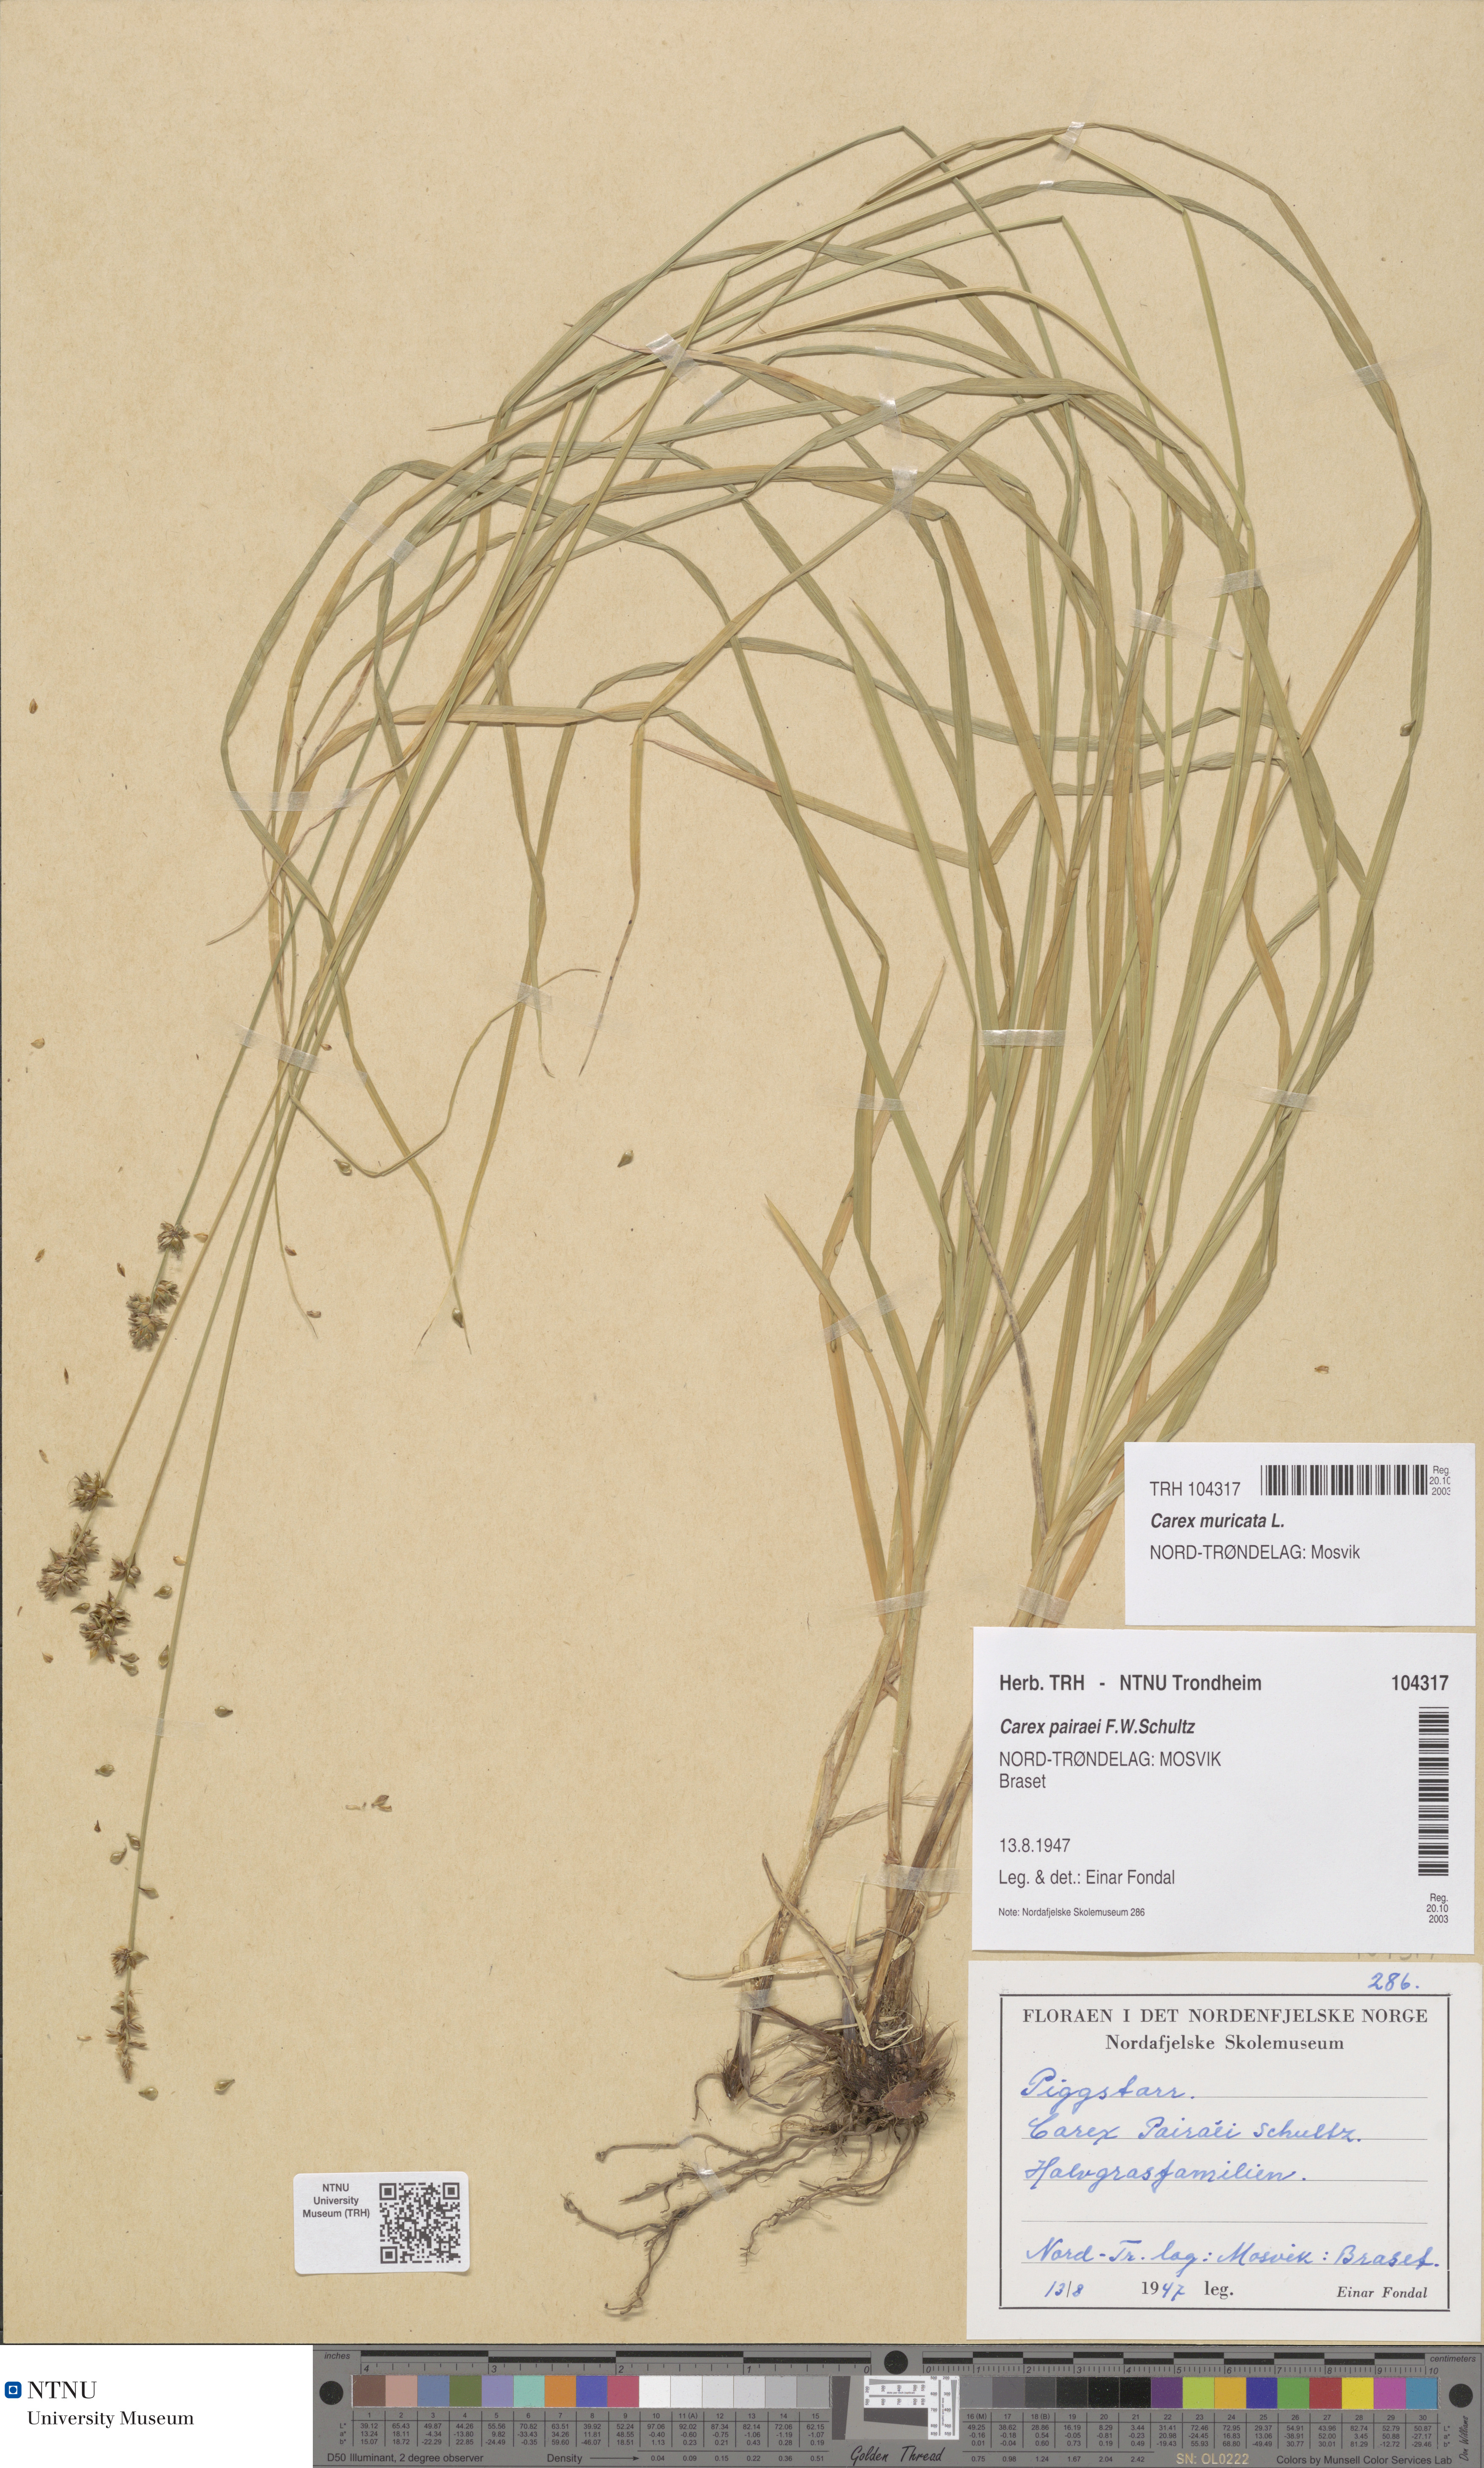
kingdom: Plantae
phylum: Tracheophyta
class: Liliopsida
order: Poales
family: Cyperaceae
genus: Carex
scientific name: Carex muricata
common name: Rough sedge
